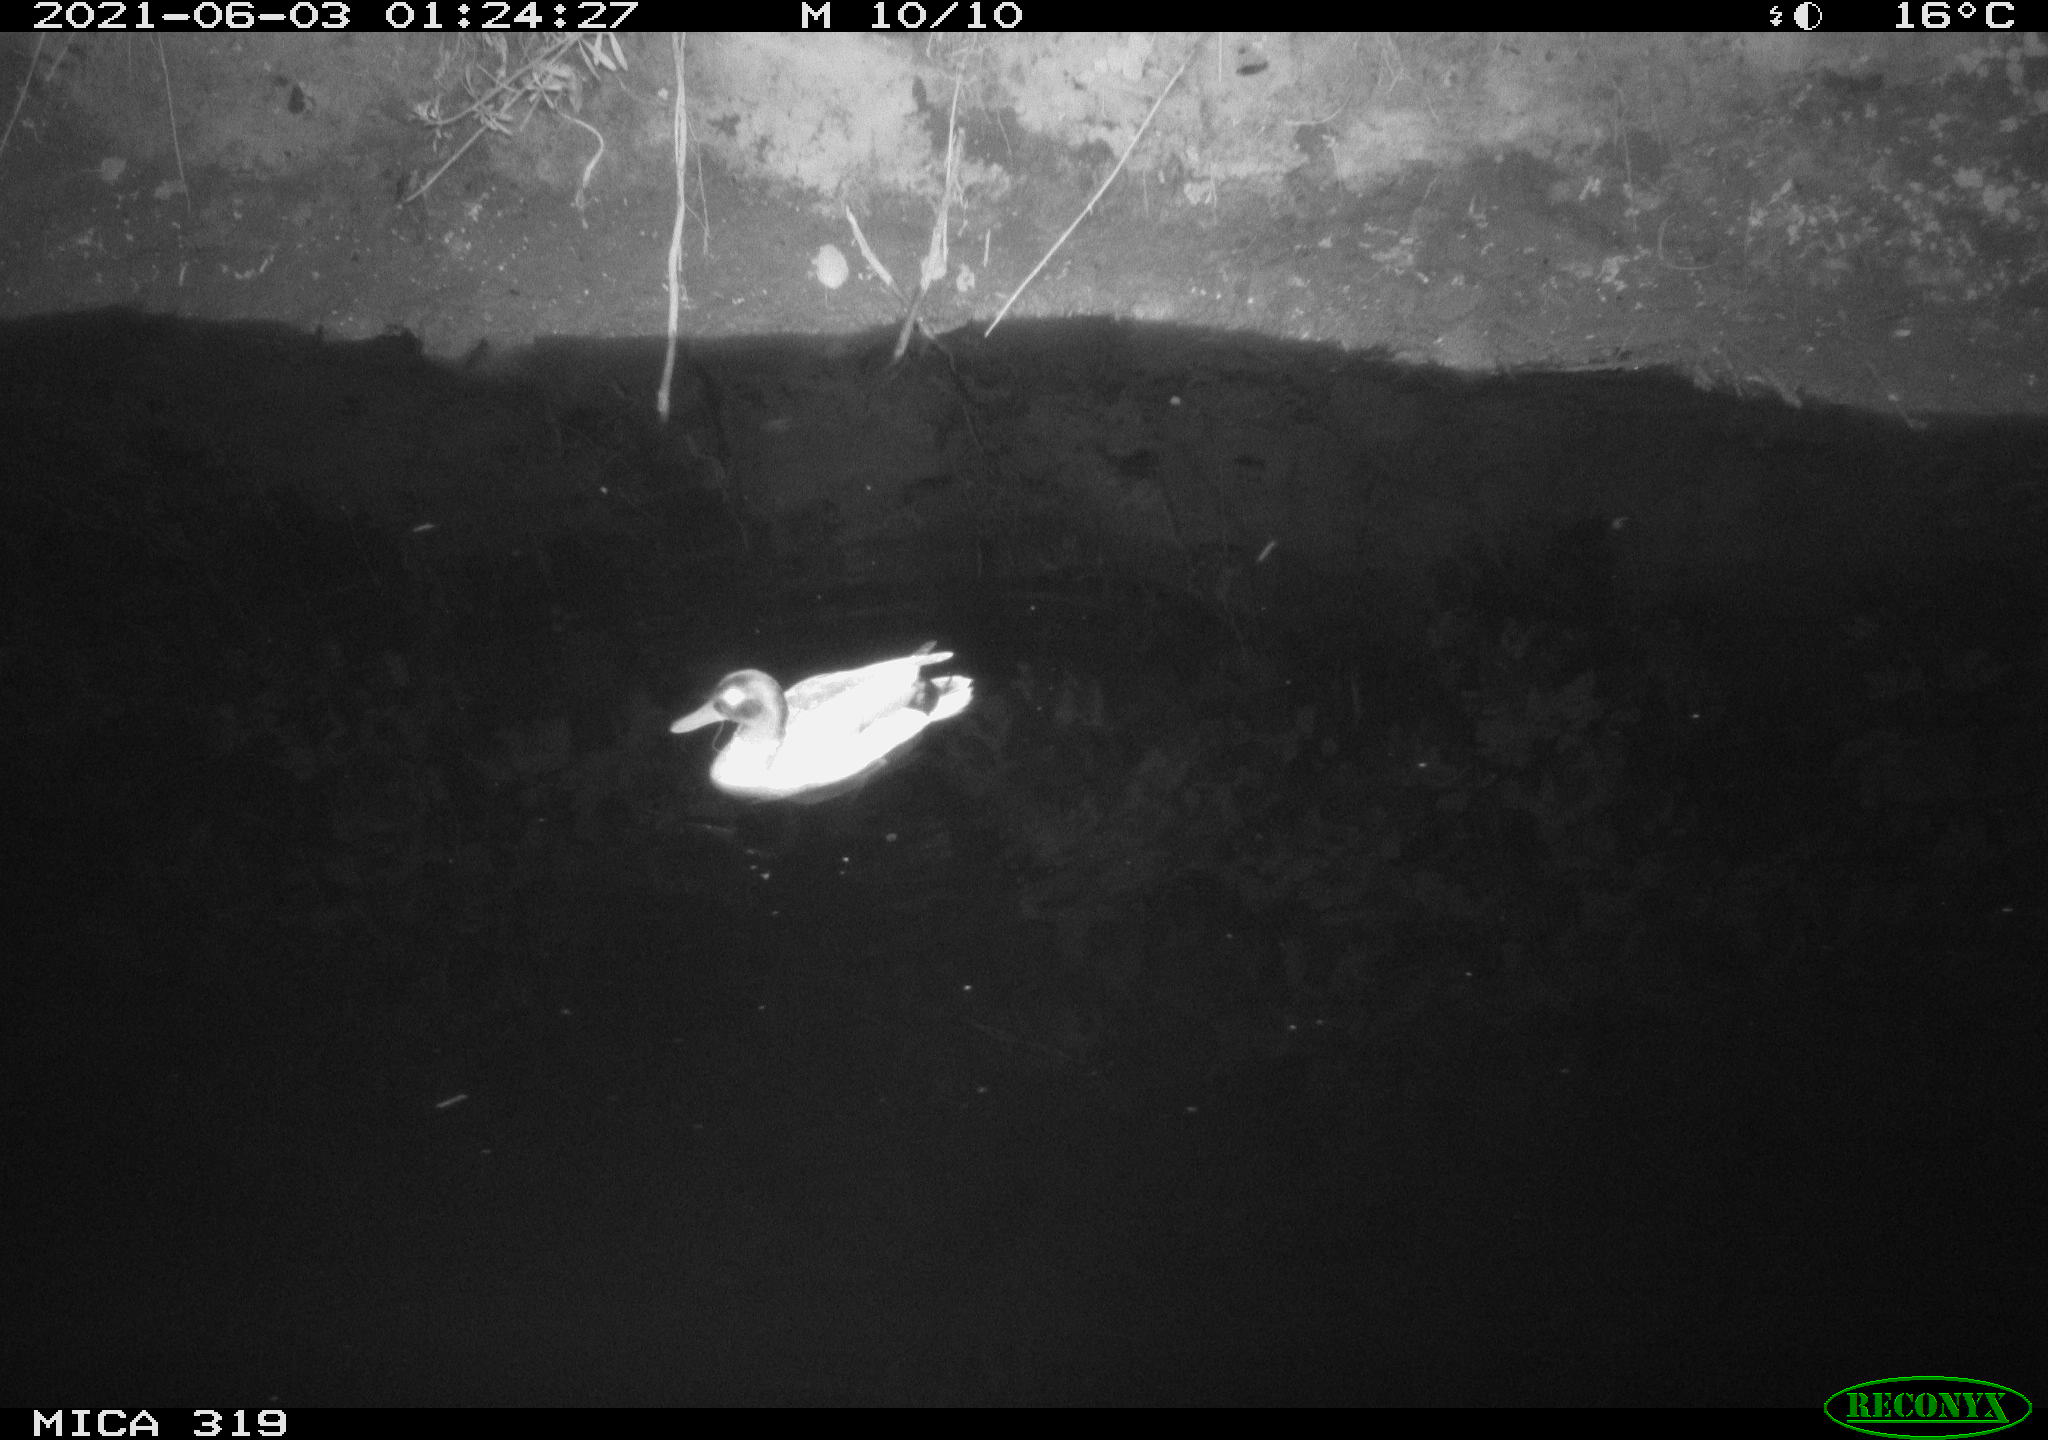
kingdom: Animalia
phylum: Chordata
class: Aves
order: Anseriformes
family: Anatidae
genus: Anas
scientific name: Anas platyrhynchos
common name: Mallard
